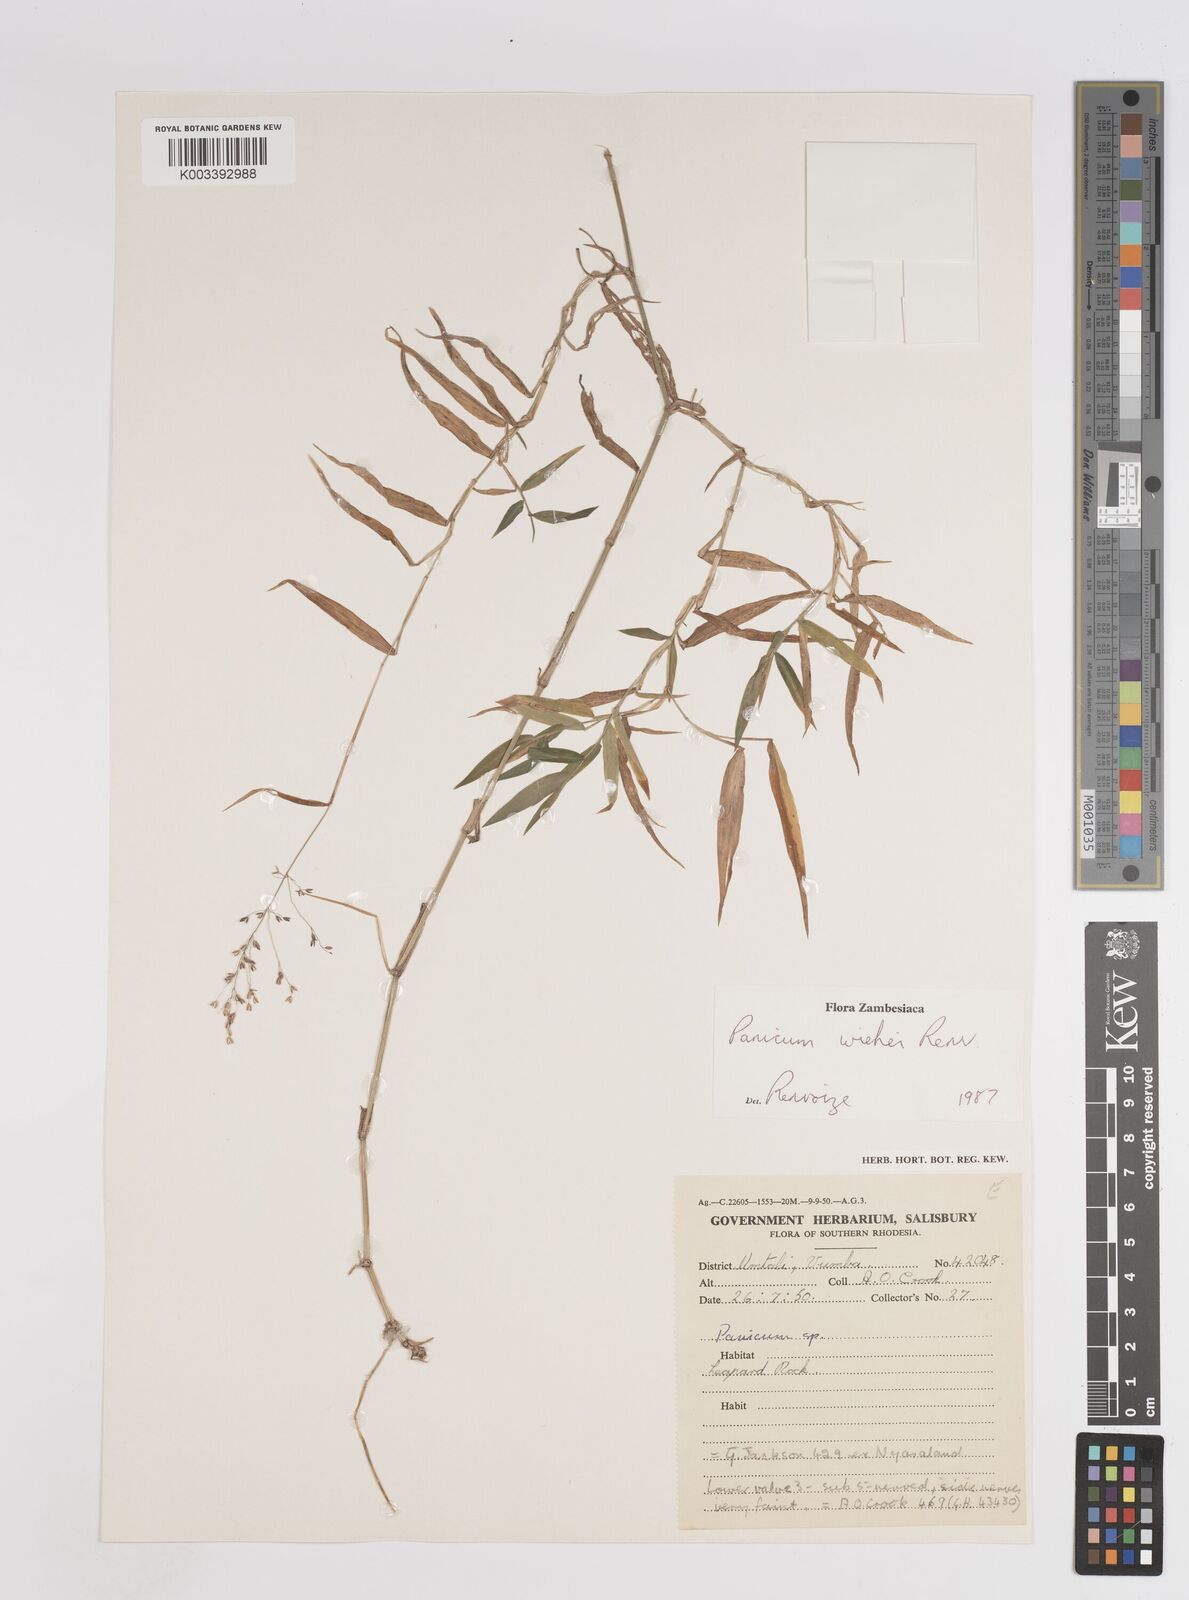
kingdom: Plantae
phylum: Tracheophyta
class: Liliopsida
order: Poales
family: Poaceae
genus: Panicum
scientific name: Panicum wiehei
